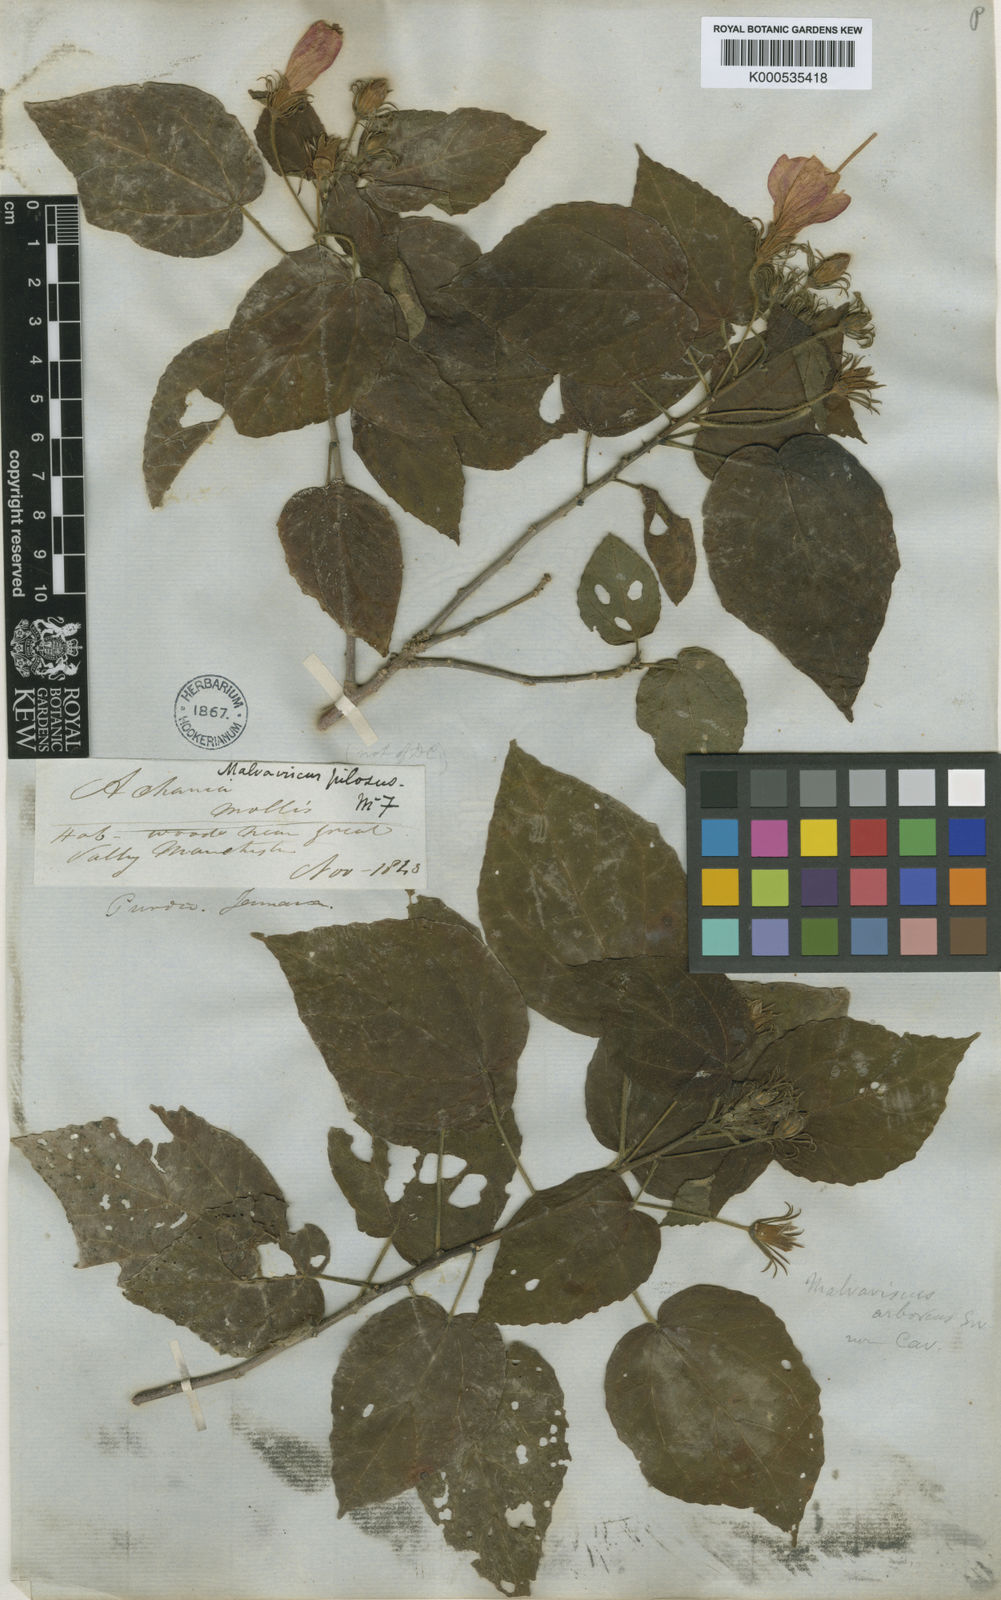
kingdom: Plantae
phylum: Tracheophyta
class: Magnoliopsida
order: Malvales
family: Malvaceae
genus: Malvaviscus
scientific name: Malvaviscus
